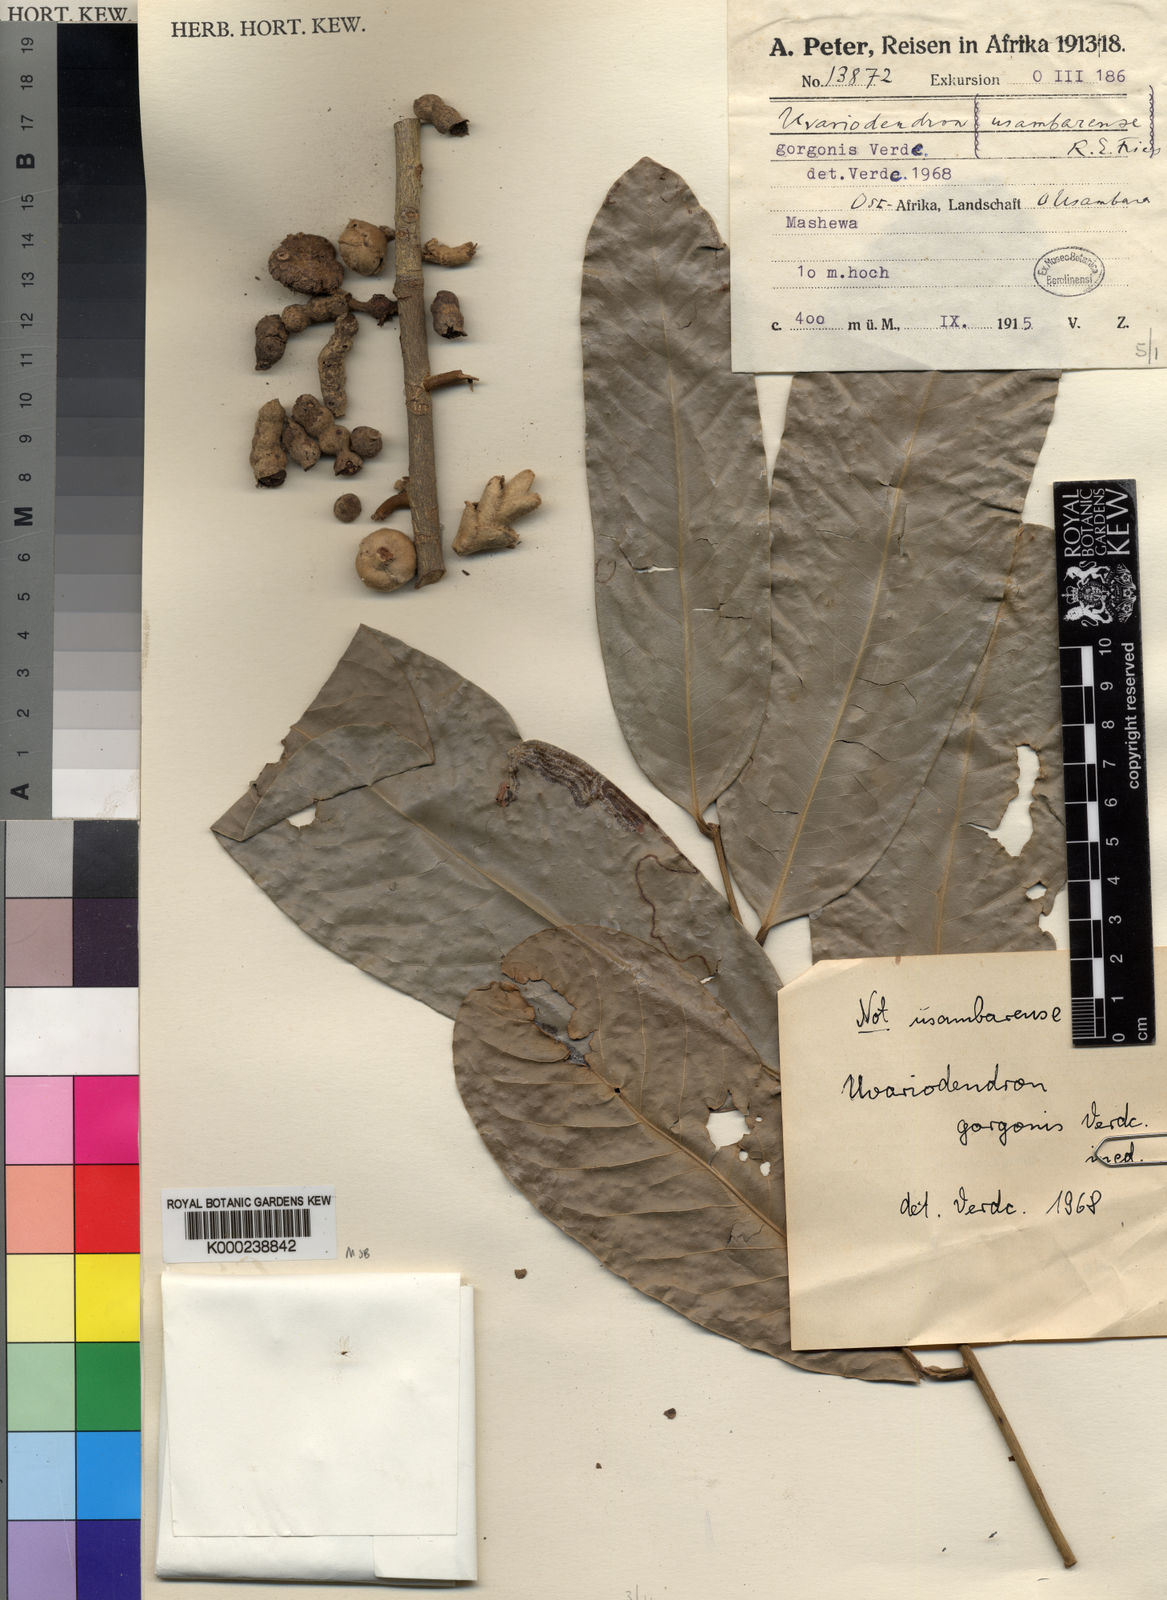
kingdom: Plantae
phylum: Tracheophyta
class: Liliopsida
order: Poales
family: Bromeliaceae
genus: Tillandsia
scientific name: Tillandsia paniculata
